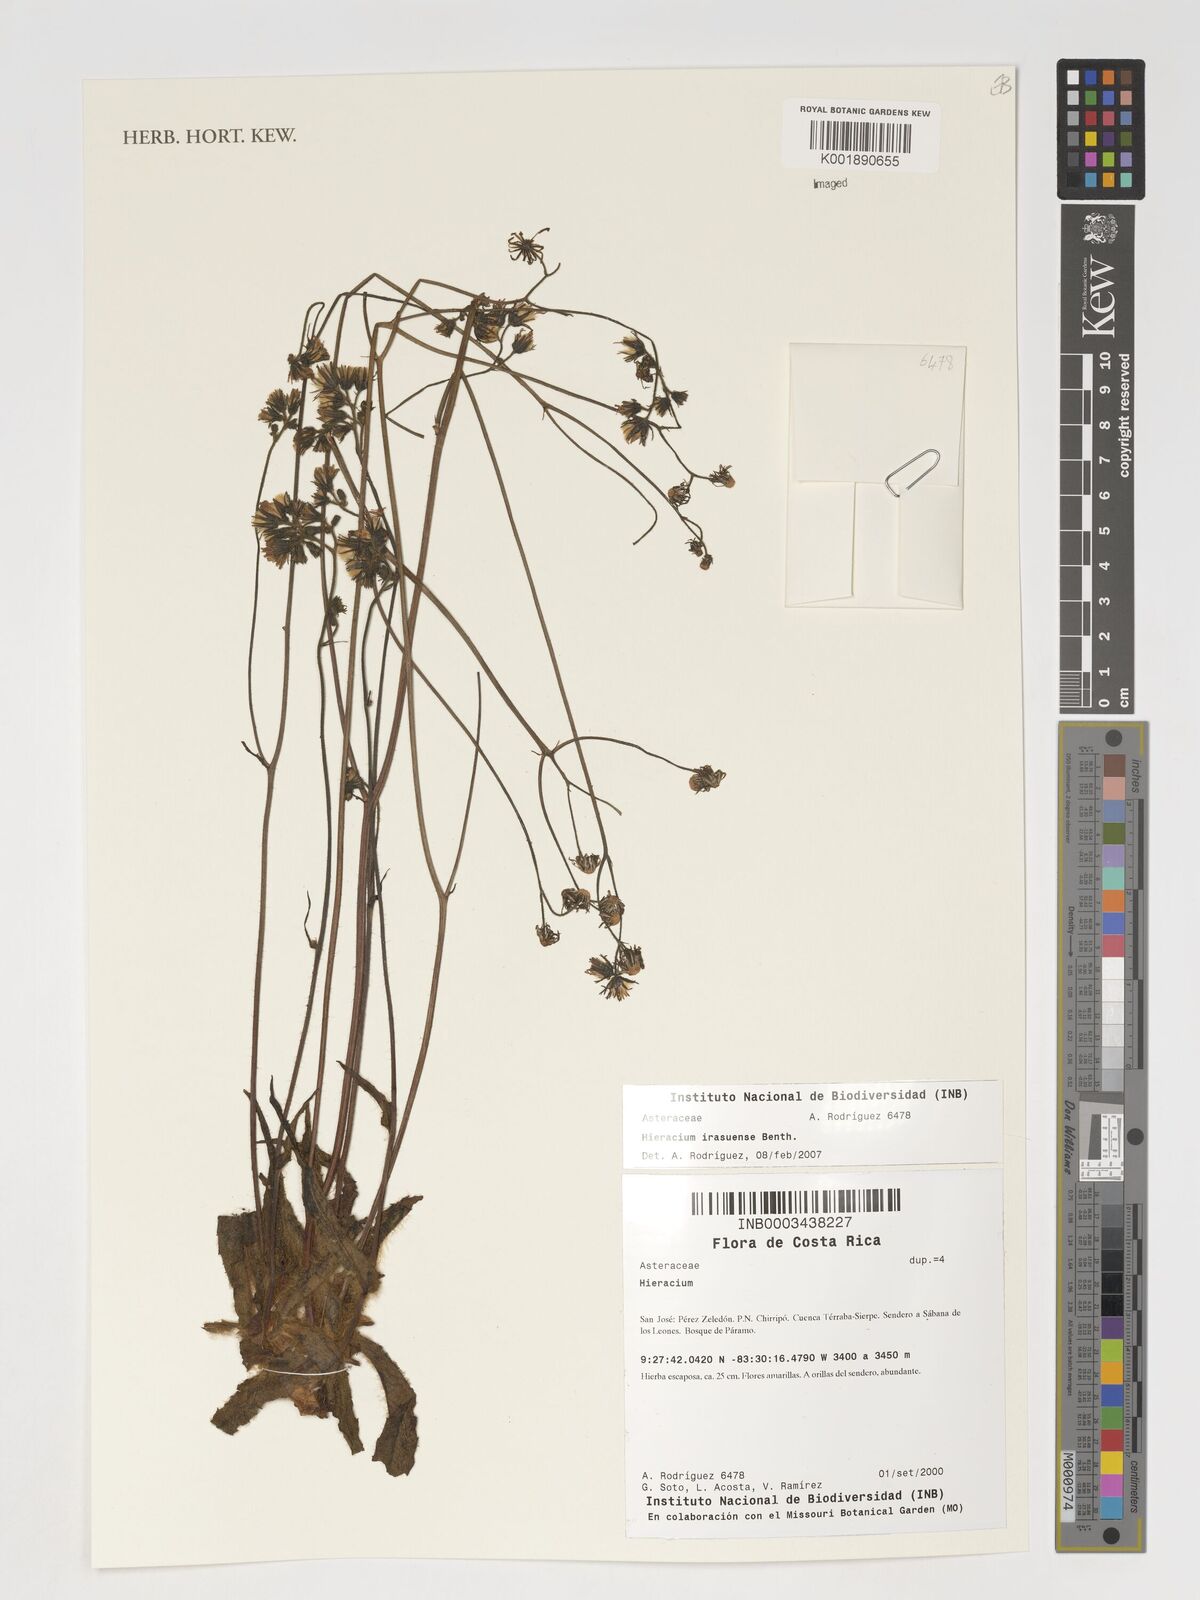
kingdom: Plantae
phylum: Tracheophyta
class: Magnoliopsida
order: Asterales
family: Asteraceae
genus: Hieracium
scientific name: Hieracium
